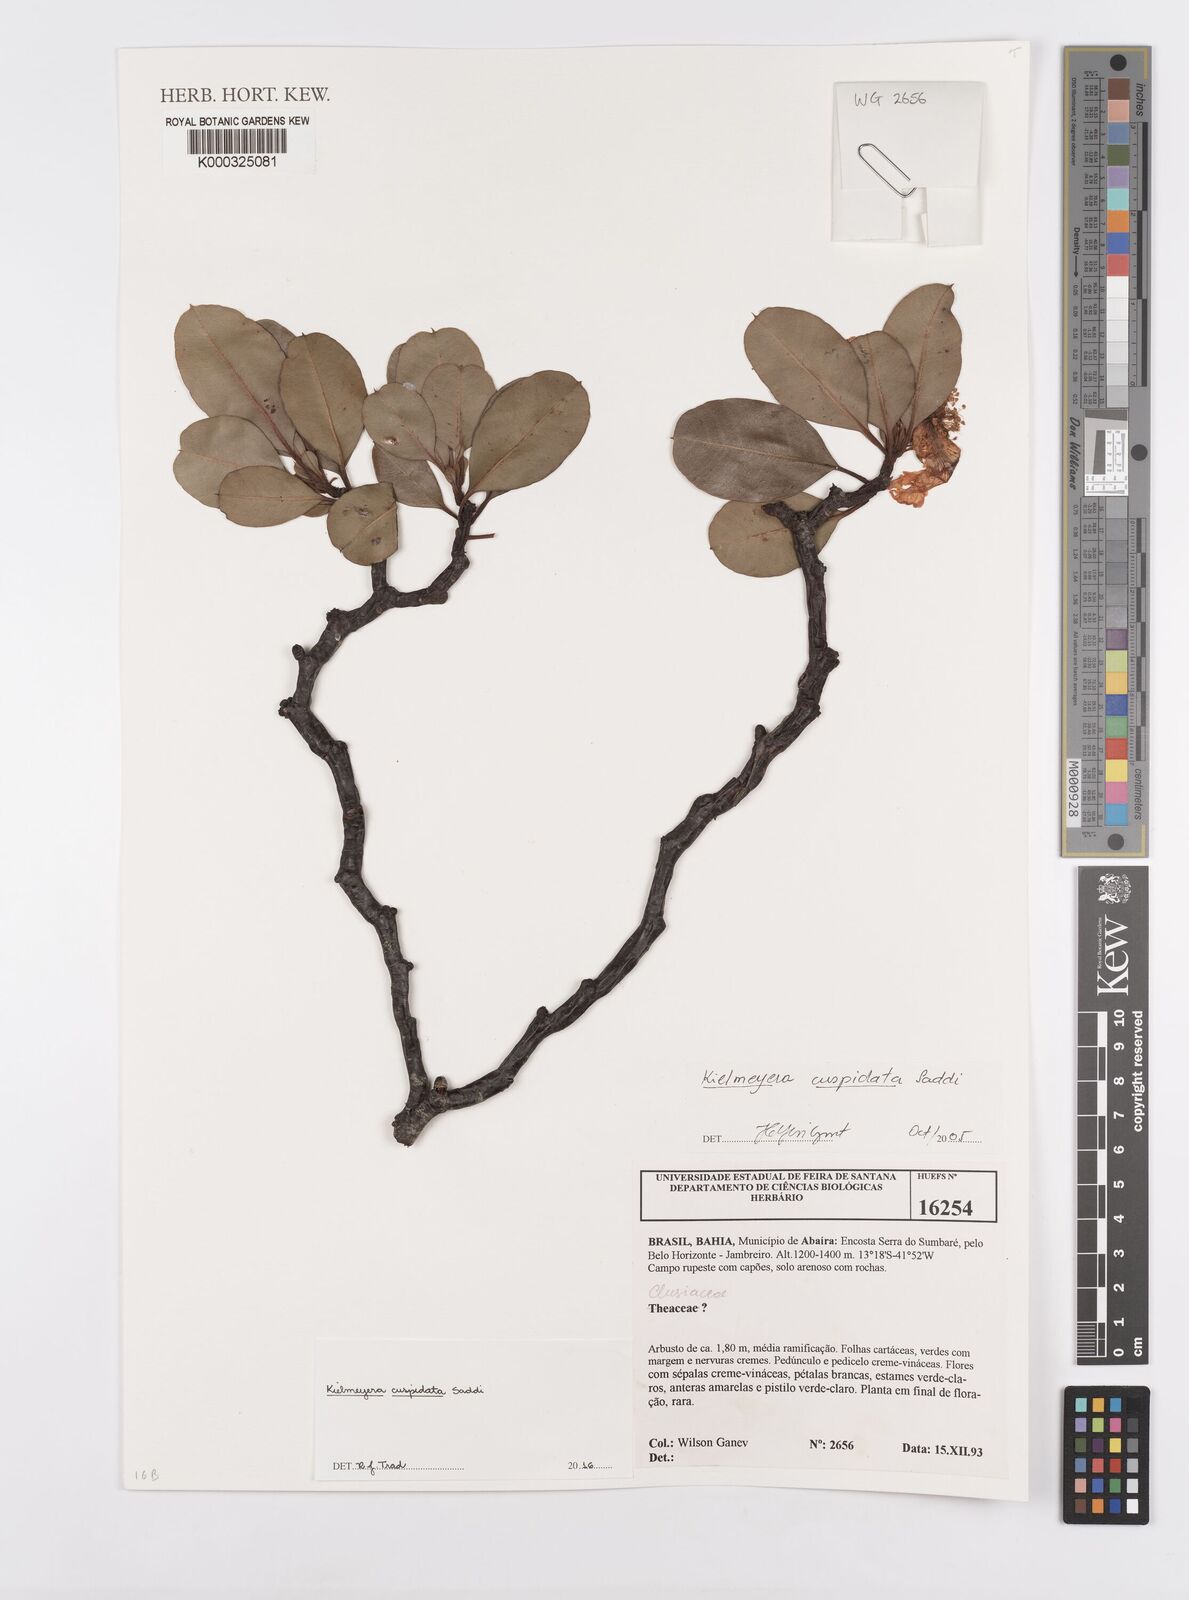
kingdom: Plantae
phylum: Tracheophyta
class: Magnoliopsida
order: Malpighiales
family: Clusiaceae
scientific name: Clusiaceae
